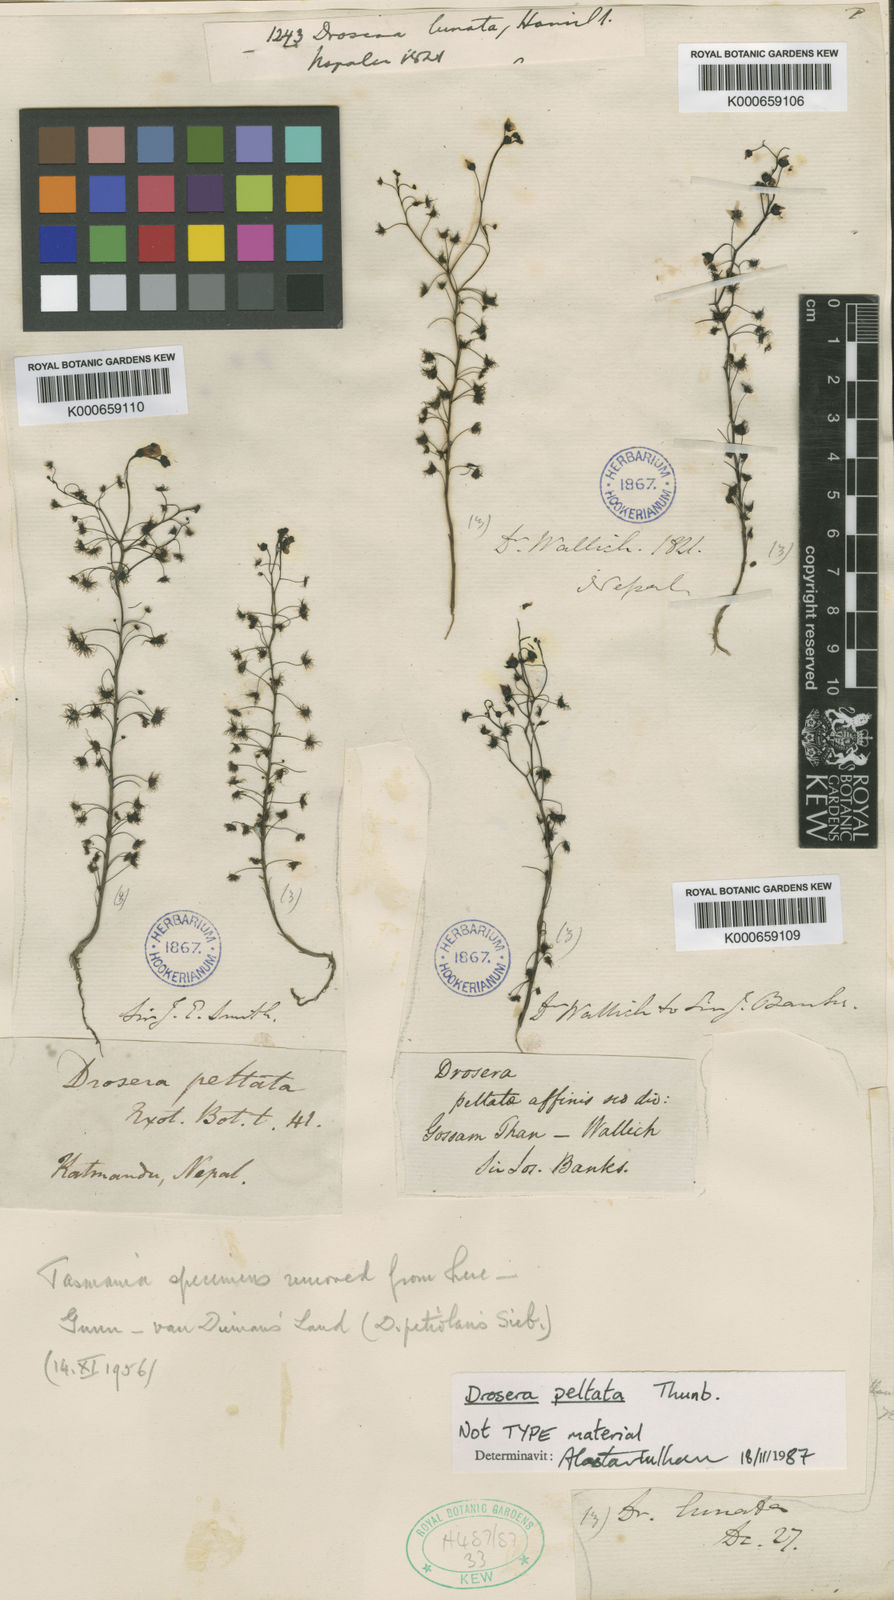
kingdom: Plantae
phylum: Tracheophyta
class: Magnoliopsida
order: Caryophyllales
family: Droseraceae
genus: Drosera
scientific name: Drosera peltata
